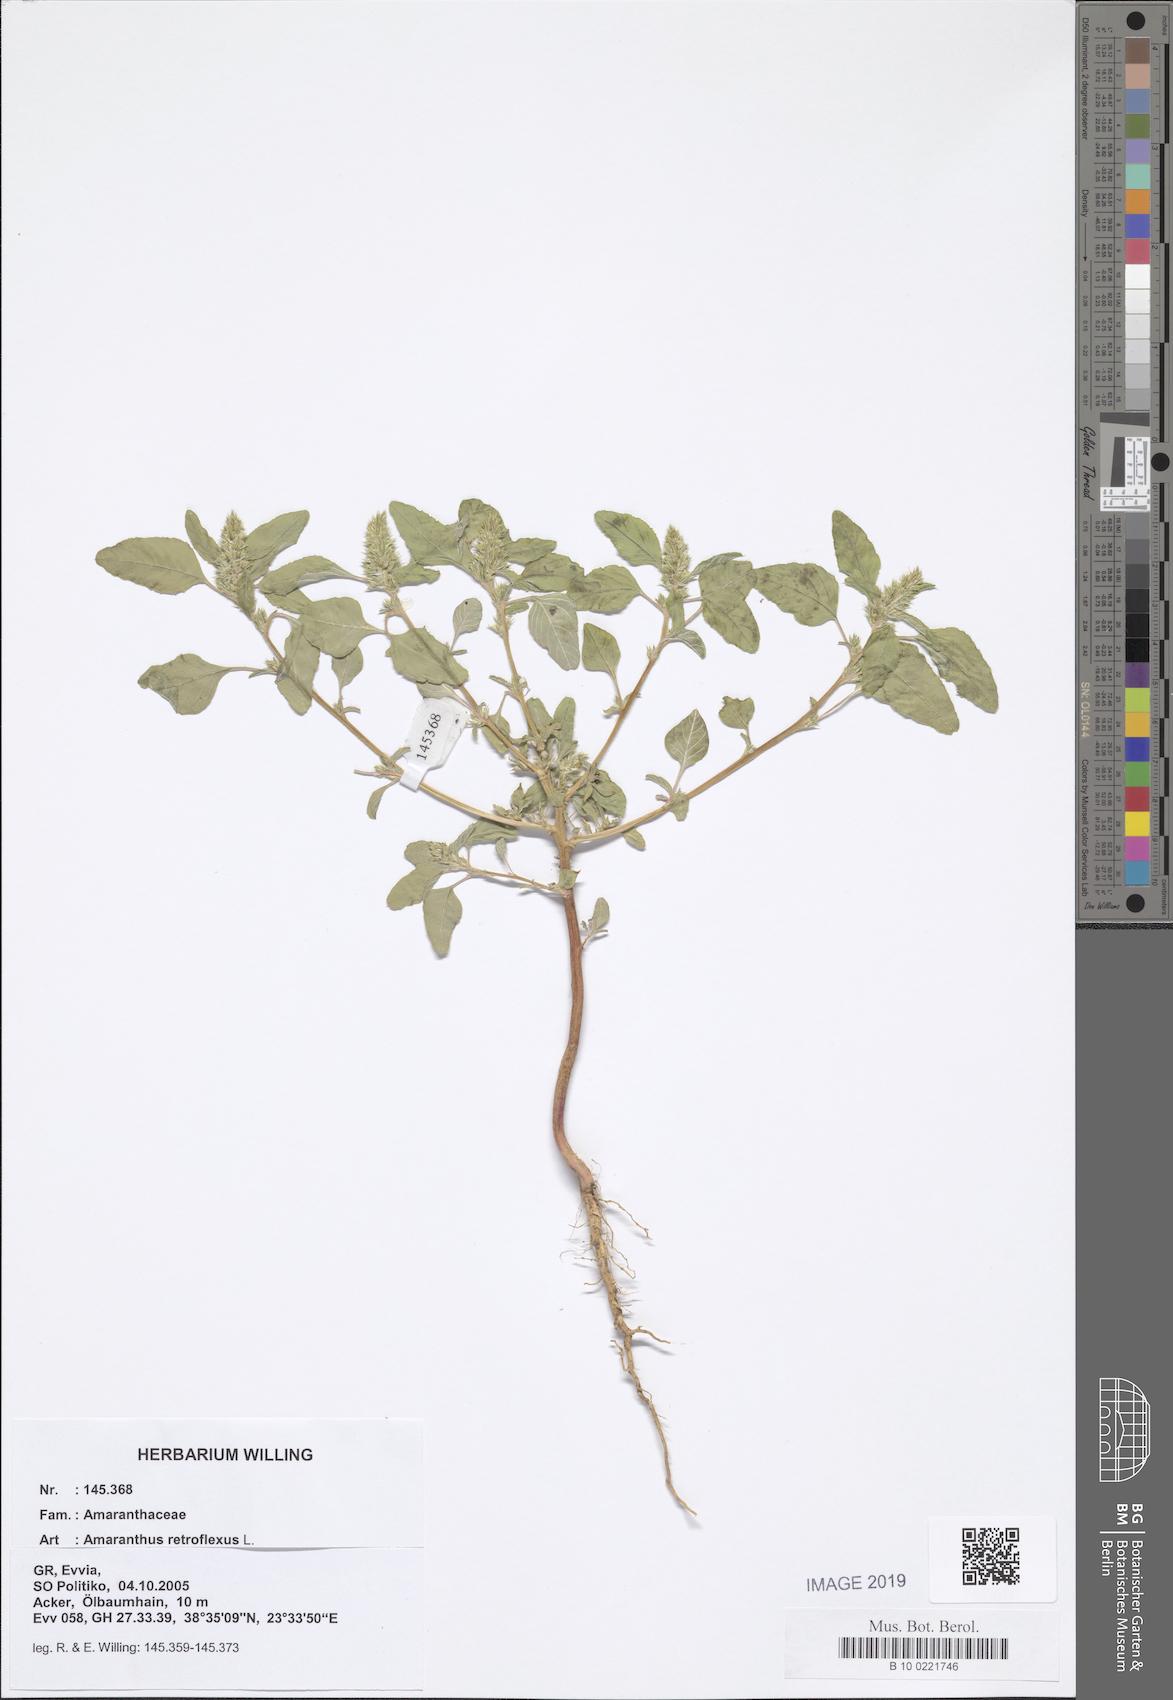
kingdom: Plantae
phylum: Tracheophyta
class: Magnoliopsida
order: Caryophyllales
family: Amaranthaceae
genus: Amaranthus
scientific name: Amaranthus retroflexus
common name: Redroot amaranth
